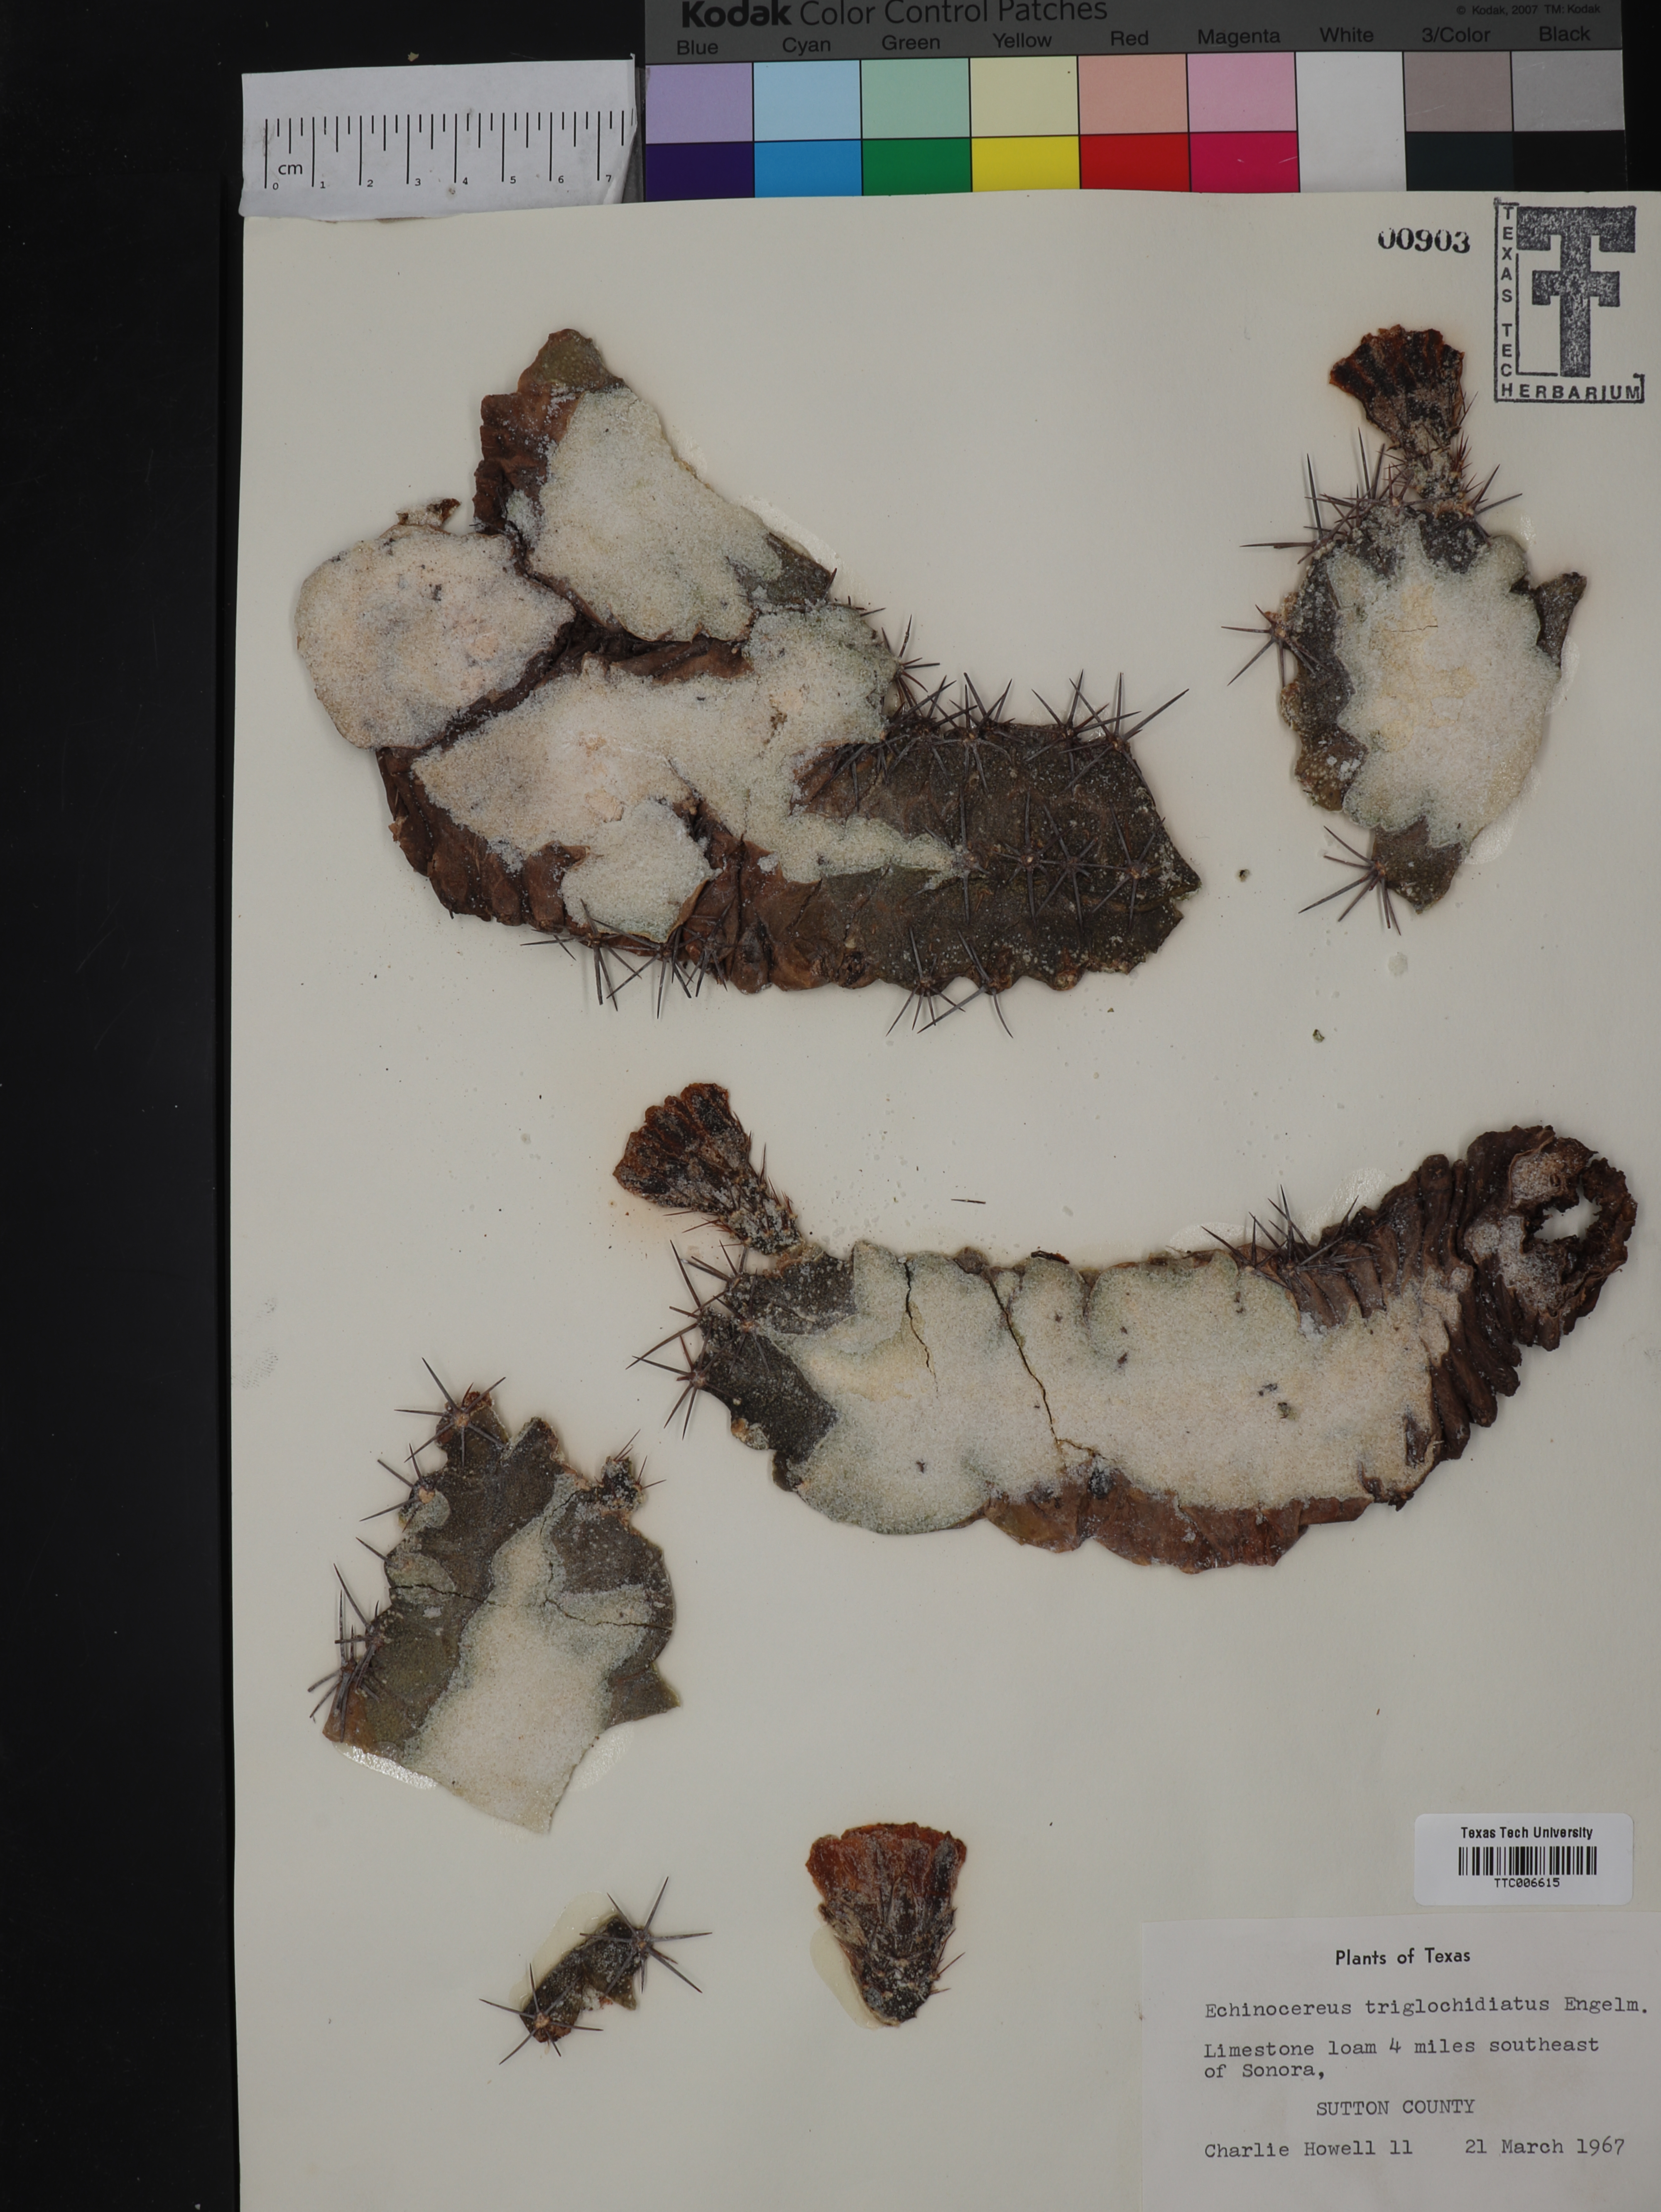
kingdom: Plantae
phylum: Tracheophyta
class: Magnoliopsida
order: Caryophyllales
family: Cactaceae
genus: Echinocactus
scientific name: Echinocactus
